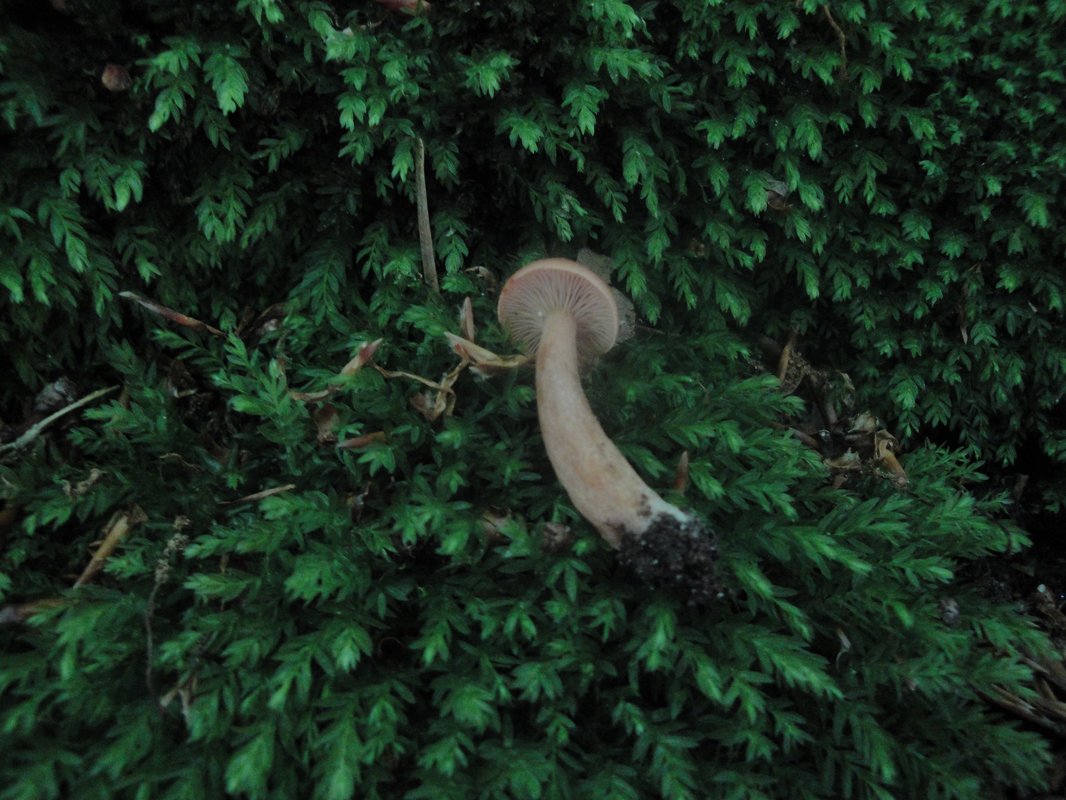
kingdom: Fungi
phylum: Basidiomycota
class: Agaricomycetes
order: Russulales
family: Russulaceae
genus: Lactarius
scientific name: Lactarius quietus
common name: ege-mælkehat
